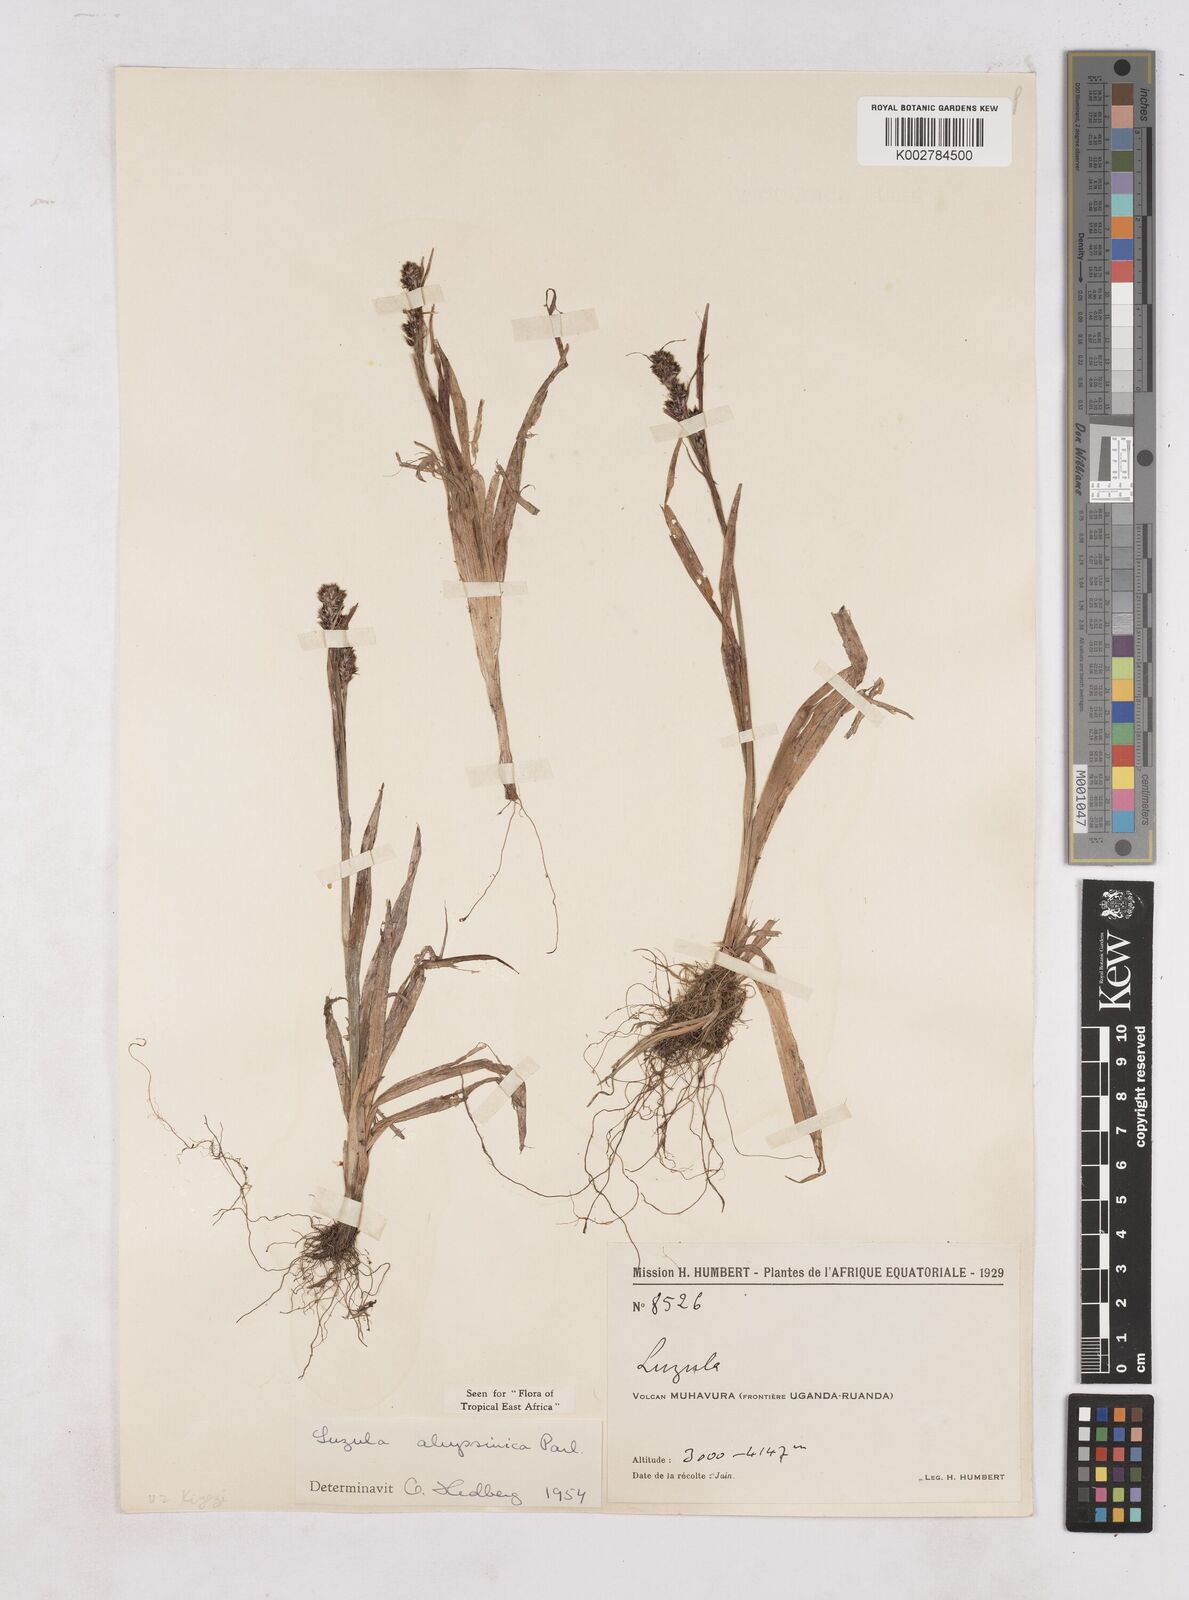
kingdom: Plantae
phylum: Tracheophyta
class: Liliopsida
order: Poales
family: Juncaceae
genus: Luzula
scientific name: Luzula abyssinica
